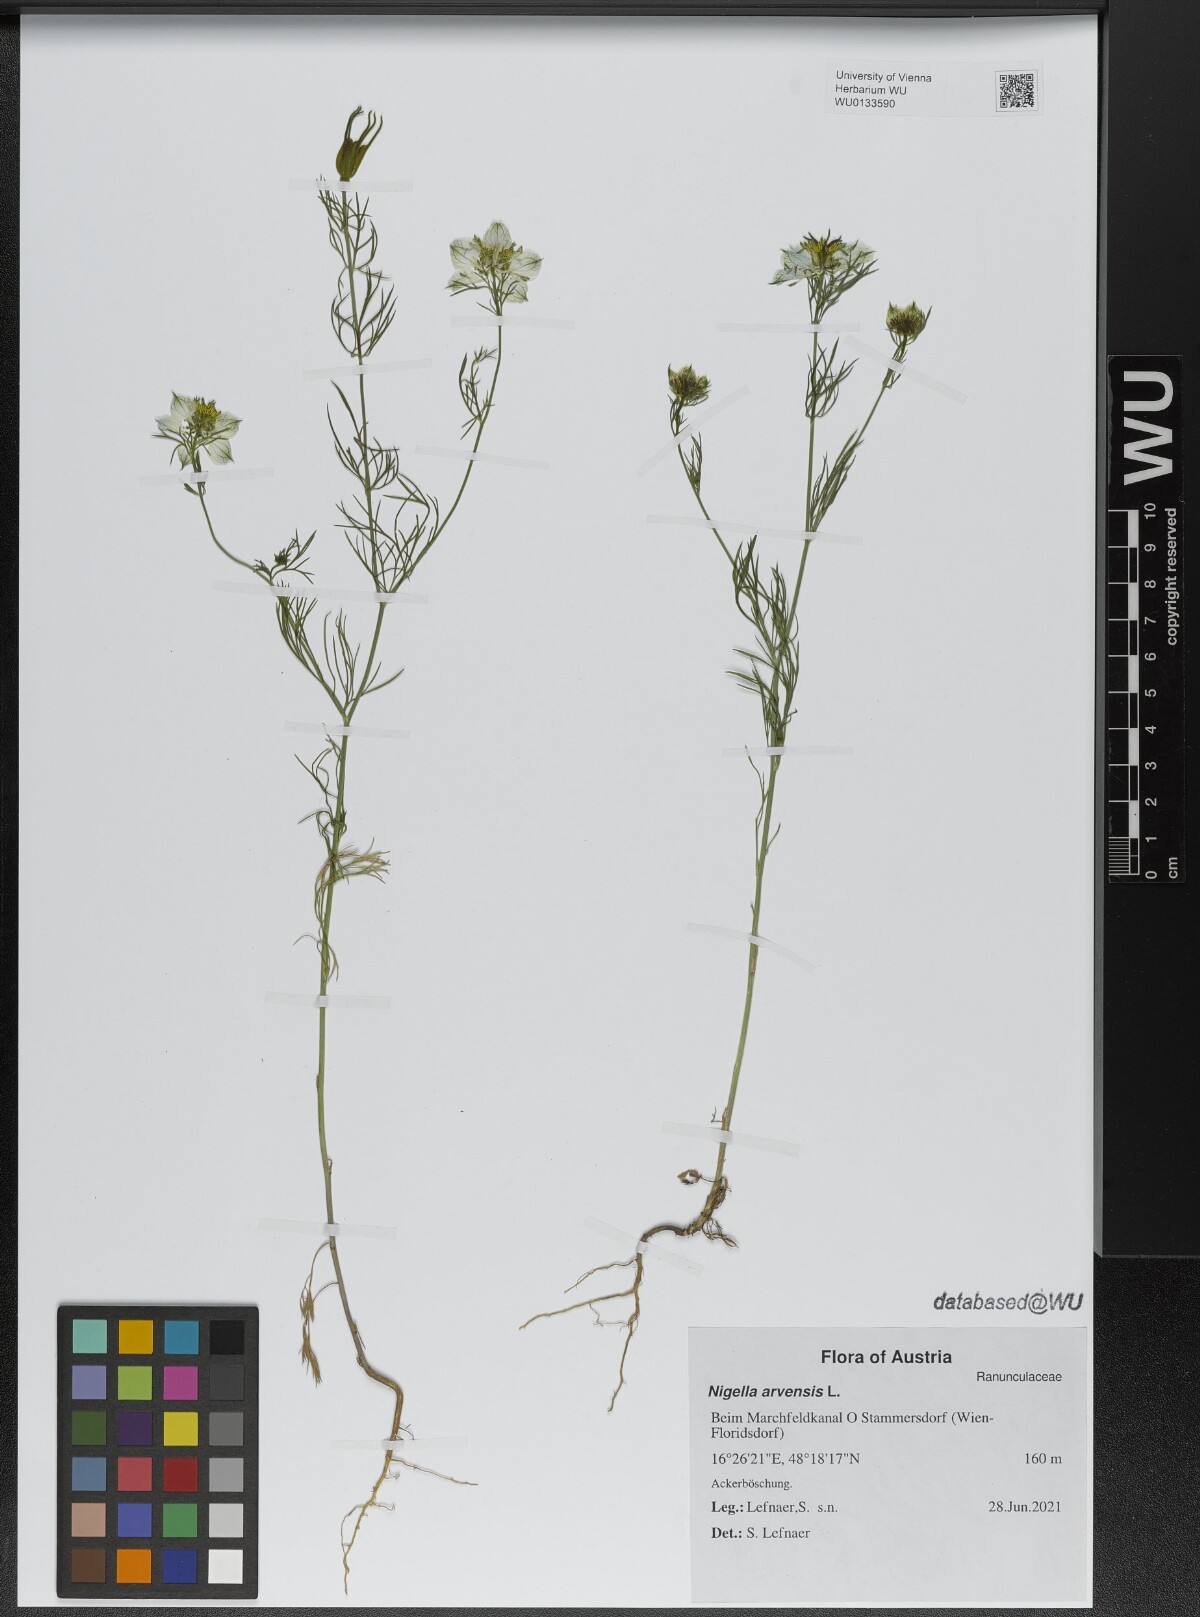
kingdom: Plantae
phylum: Tracheophyta
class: Magnoliopsida
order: Ranunculales
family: Ranunculaceae
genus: Nigella
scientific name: Nigella arvensis
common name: Wild fennel-flower
